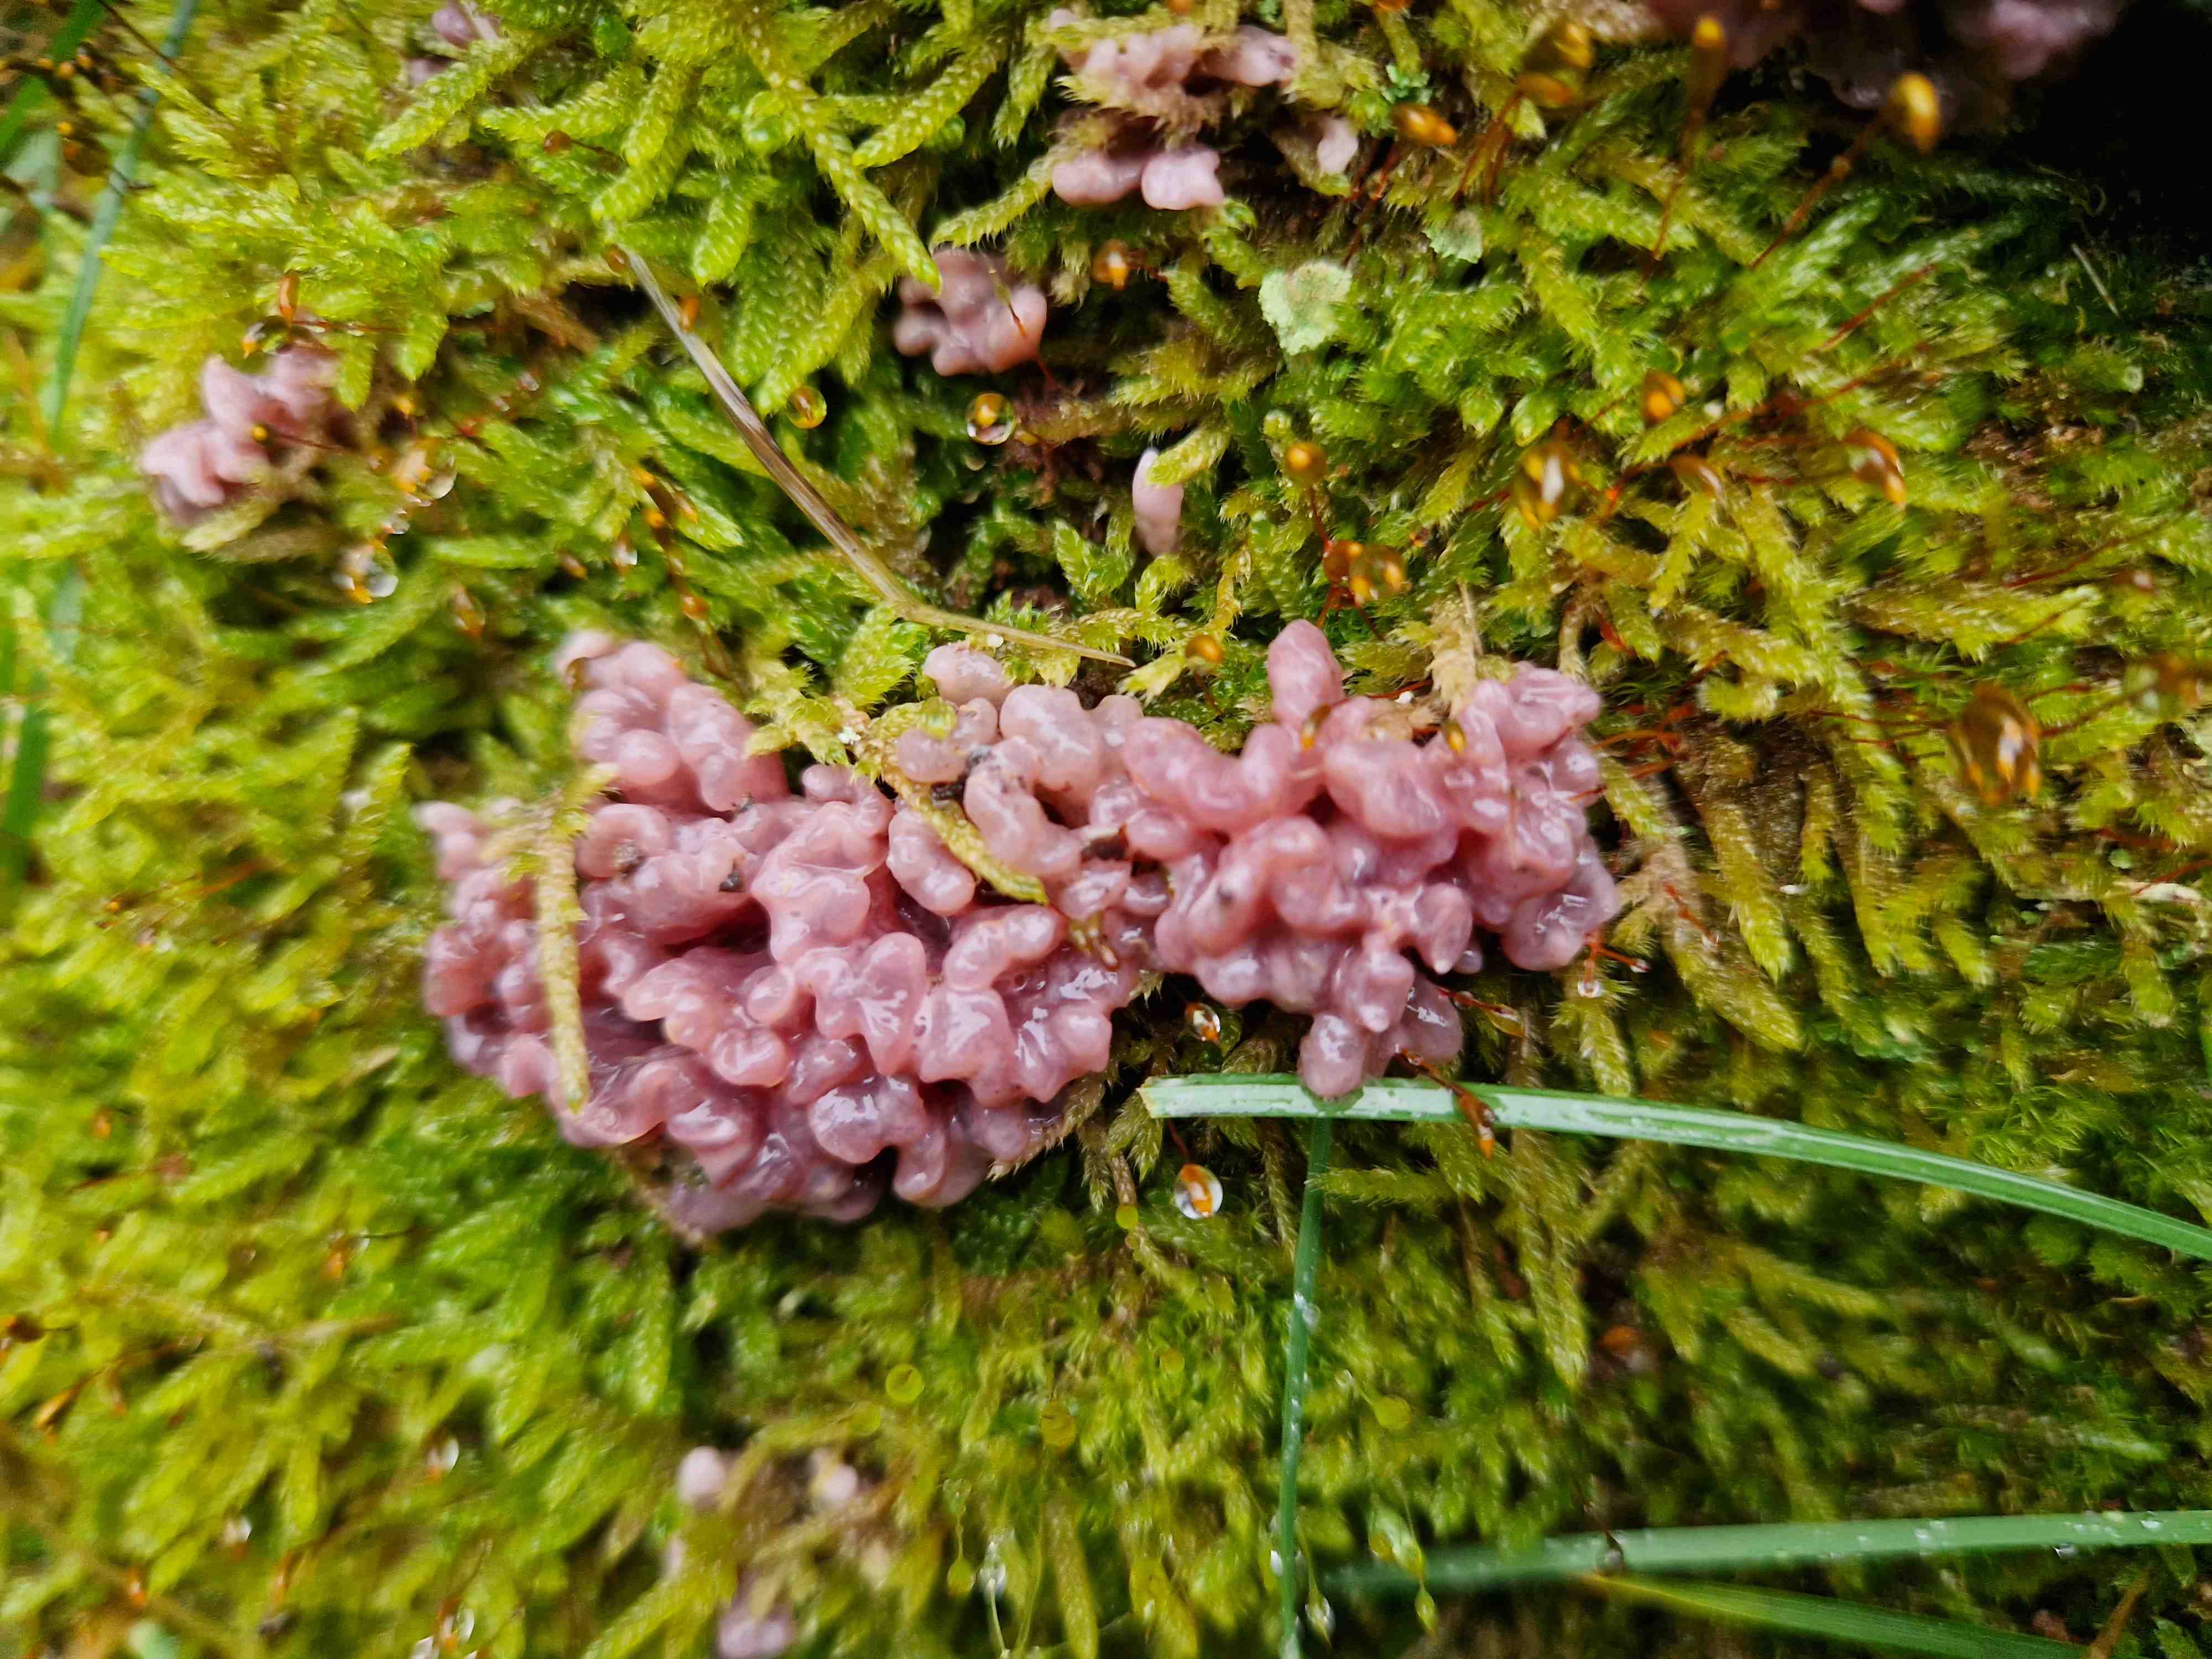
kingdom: Fungi
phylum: Ascomycota
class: Leotiomycetes
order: Helotiales
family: Gelatinodiscaceae
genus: Ascocoryne
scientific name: Ascocoryne sarcoides
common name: rødlilla sejskive
